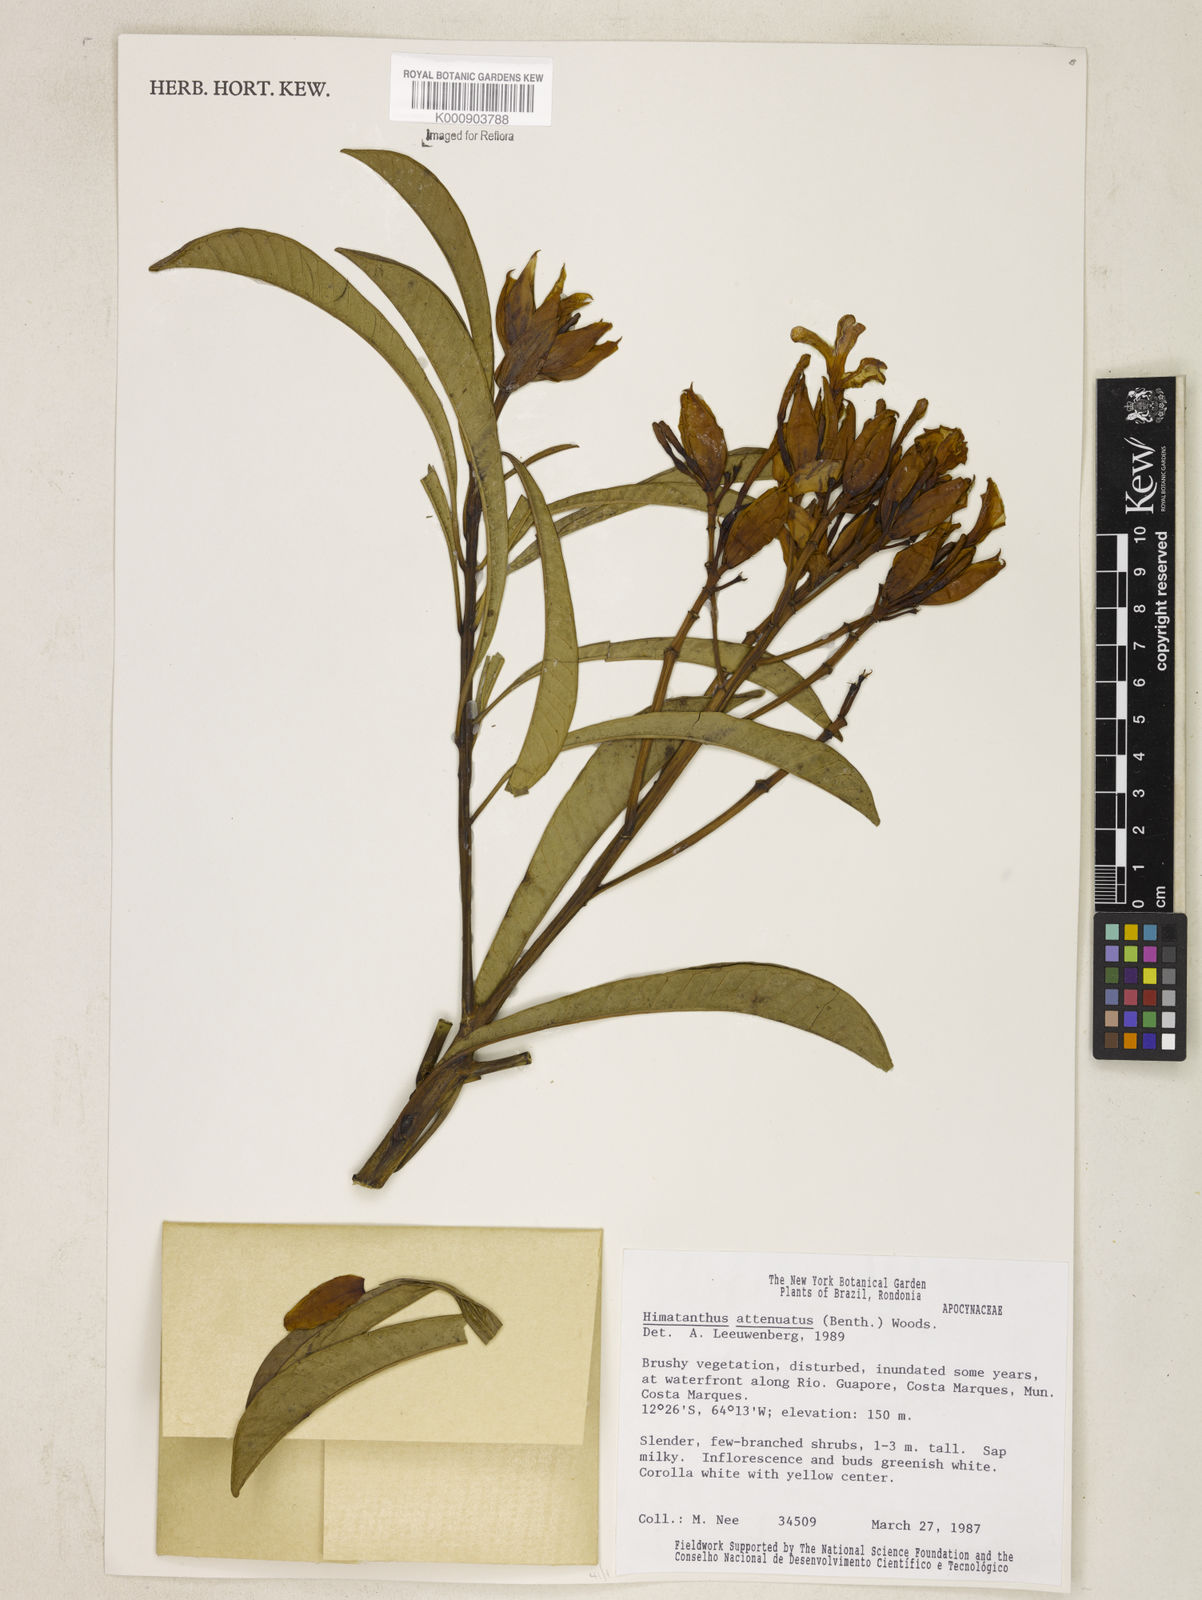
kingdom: Plantae
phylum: Tracheophyta
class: Magnoliopsida
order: Gentianales
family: Apocynaceae
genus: Himatanthus
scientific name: Himatanthus attenuatus
